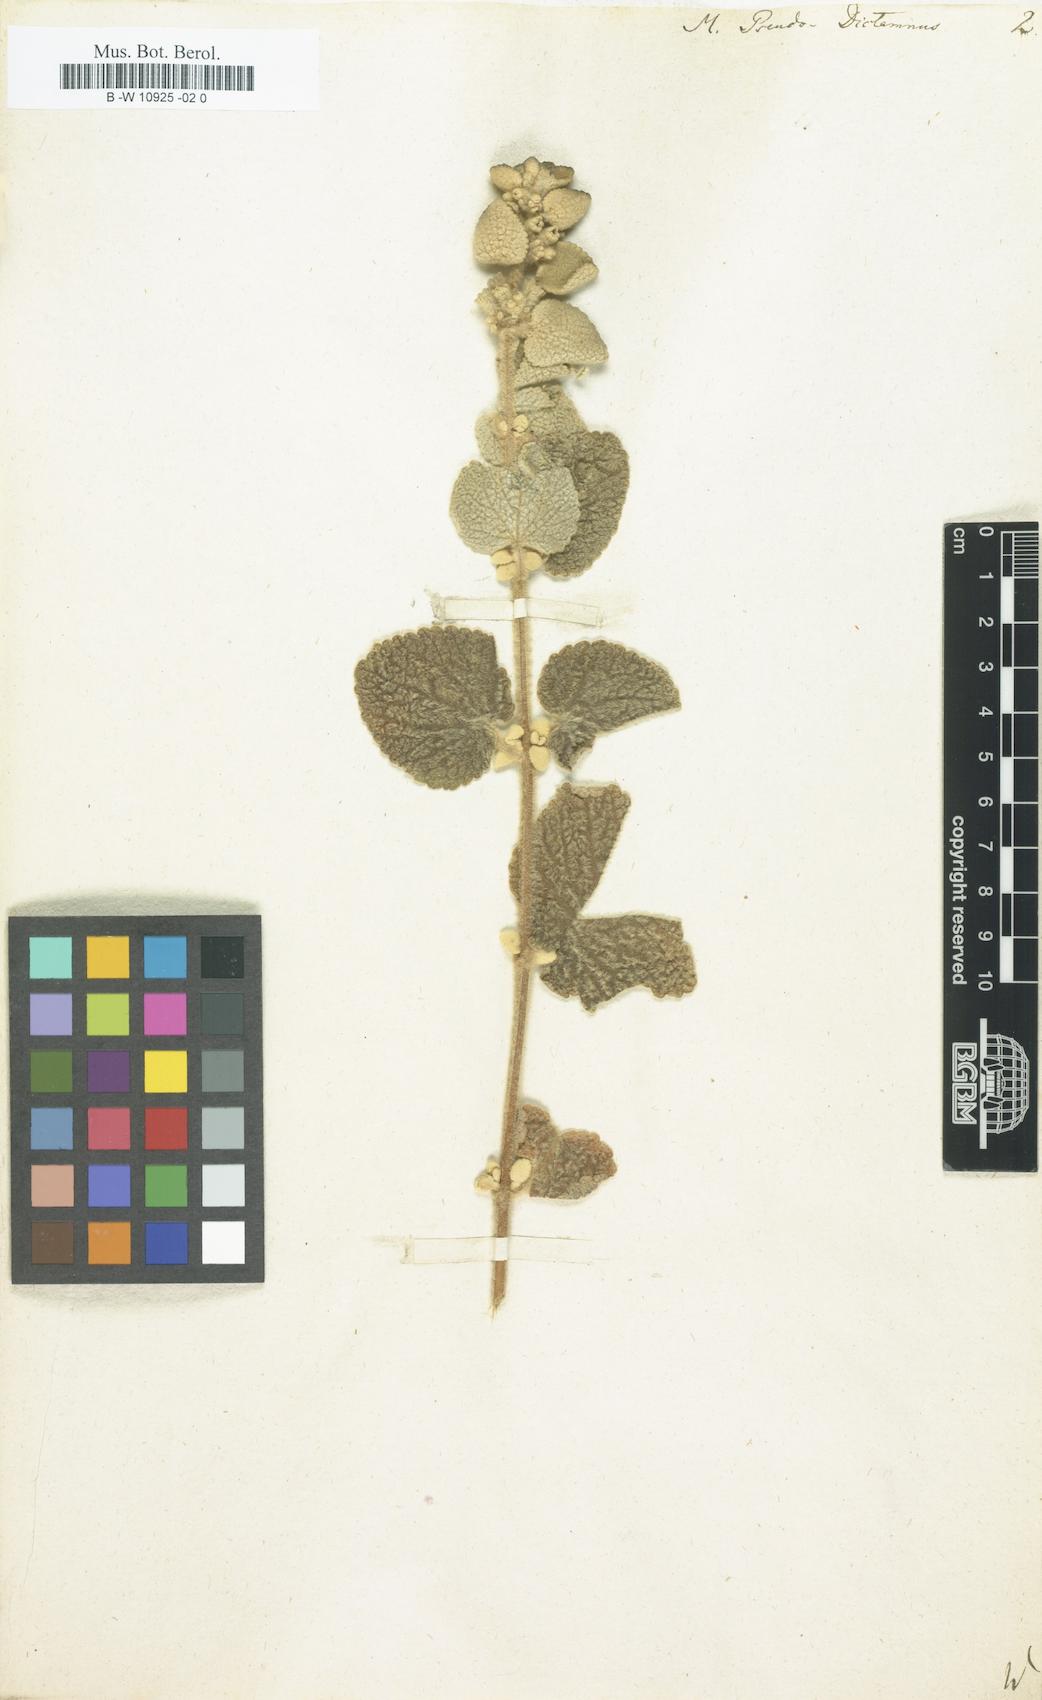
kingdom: Plantae
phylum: Tracheophyta
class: Magnoliopsida
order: Lamiales
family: Lamiaceae
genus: Marrubium
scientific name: Marrubium pseudodictamnus
